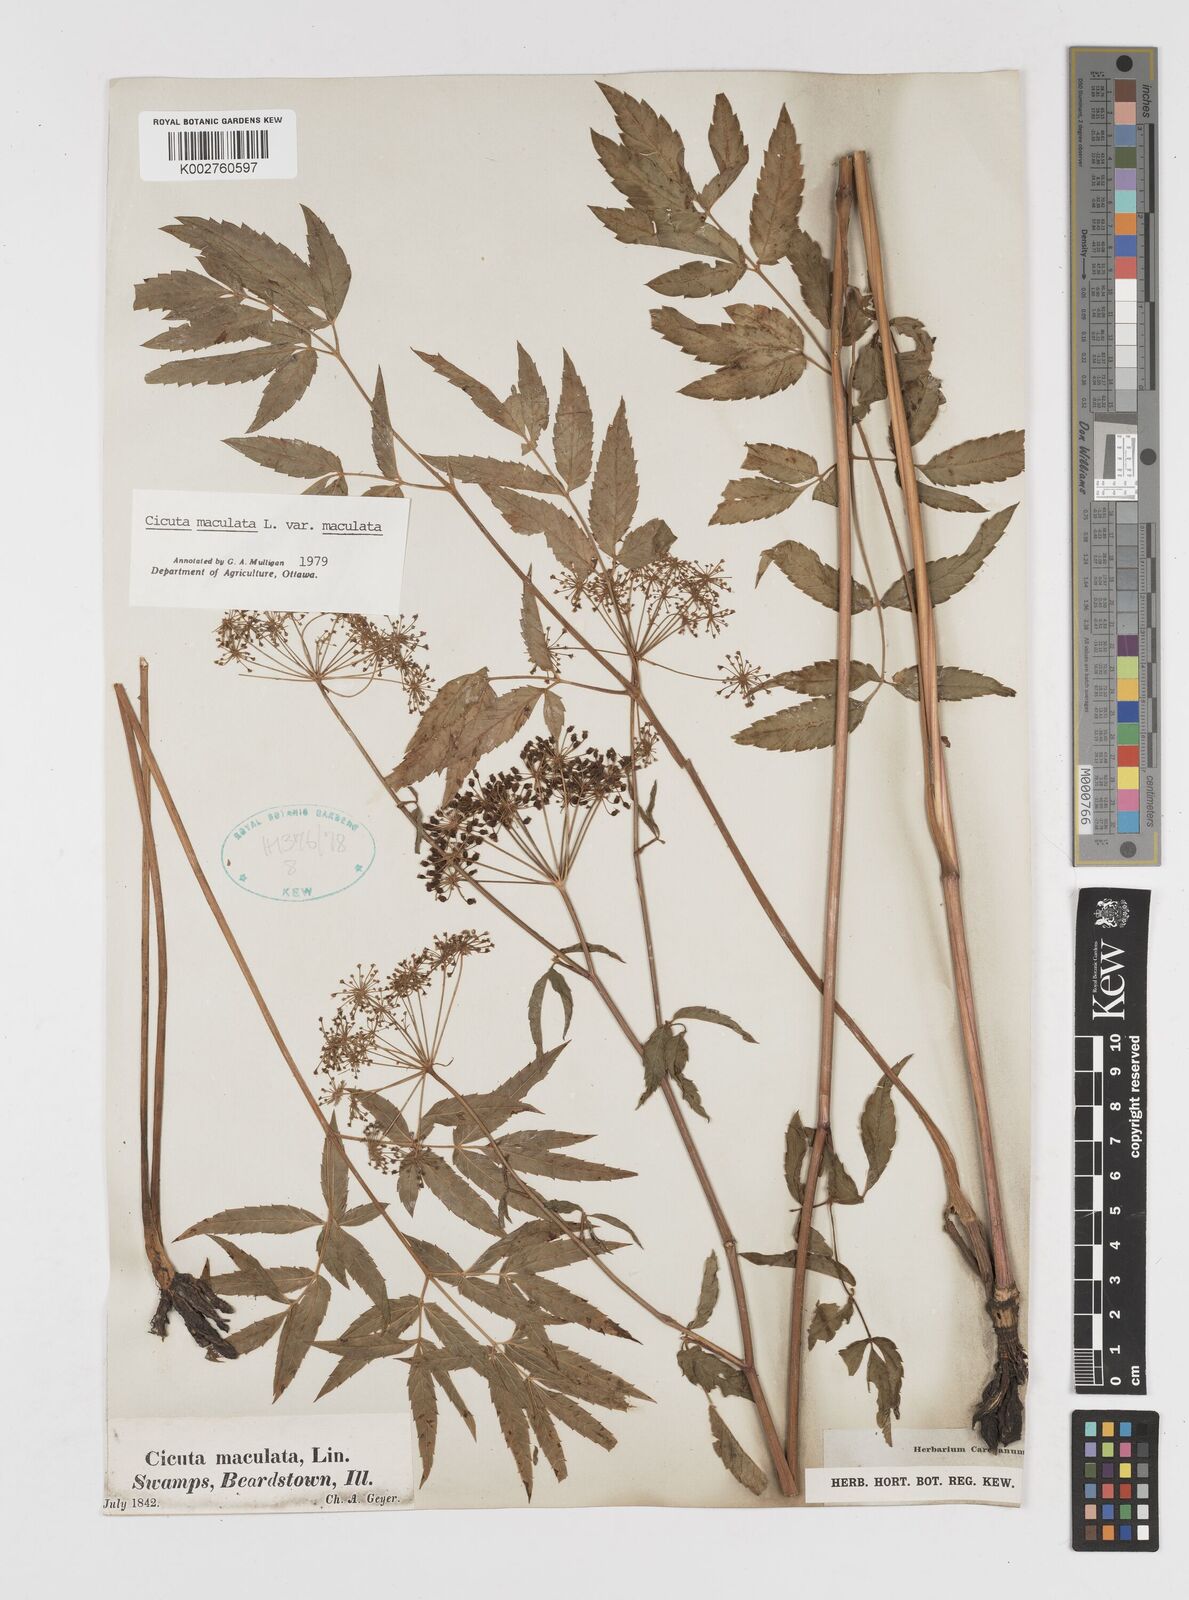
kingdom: Plantae
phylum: Tracheophyta
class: Magnoliopsida
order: Apiales
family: Apiaceae
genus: Cicuta
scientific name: Cicuta maculata
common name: Spotted cowbane
